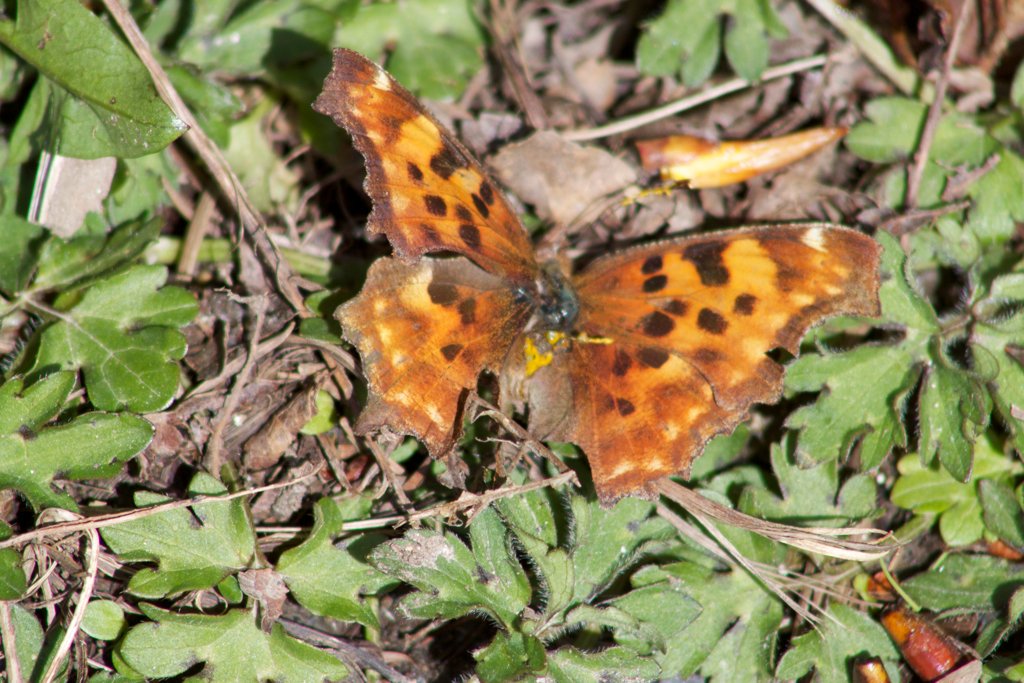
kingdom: Animalia
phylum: Arthropoda
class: Insecta
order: Lepidoptera
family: Nymphalidae
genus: Polygonia
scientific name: Polygonia satyrus
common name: Satyr Comma
